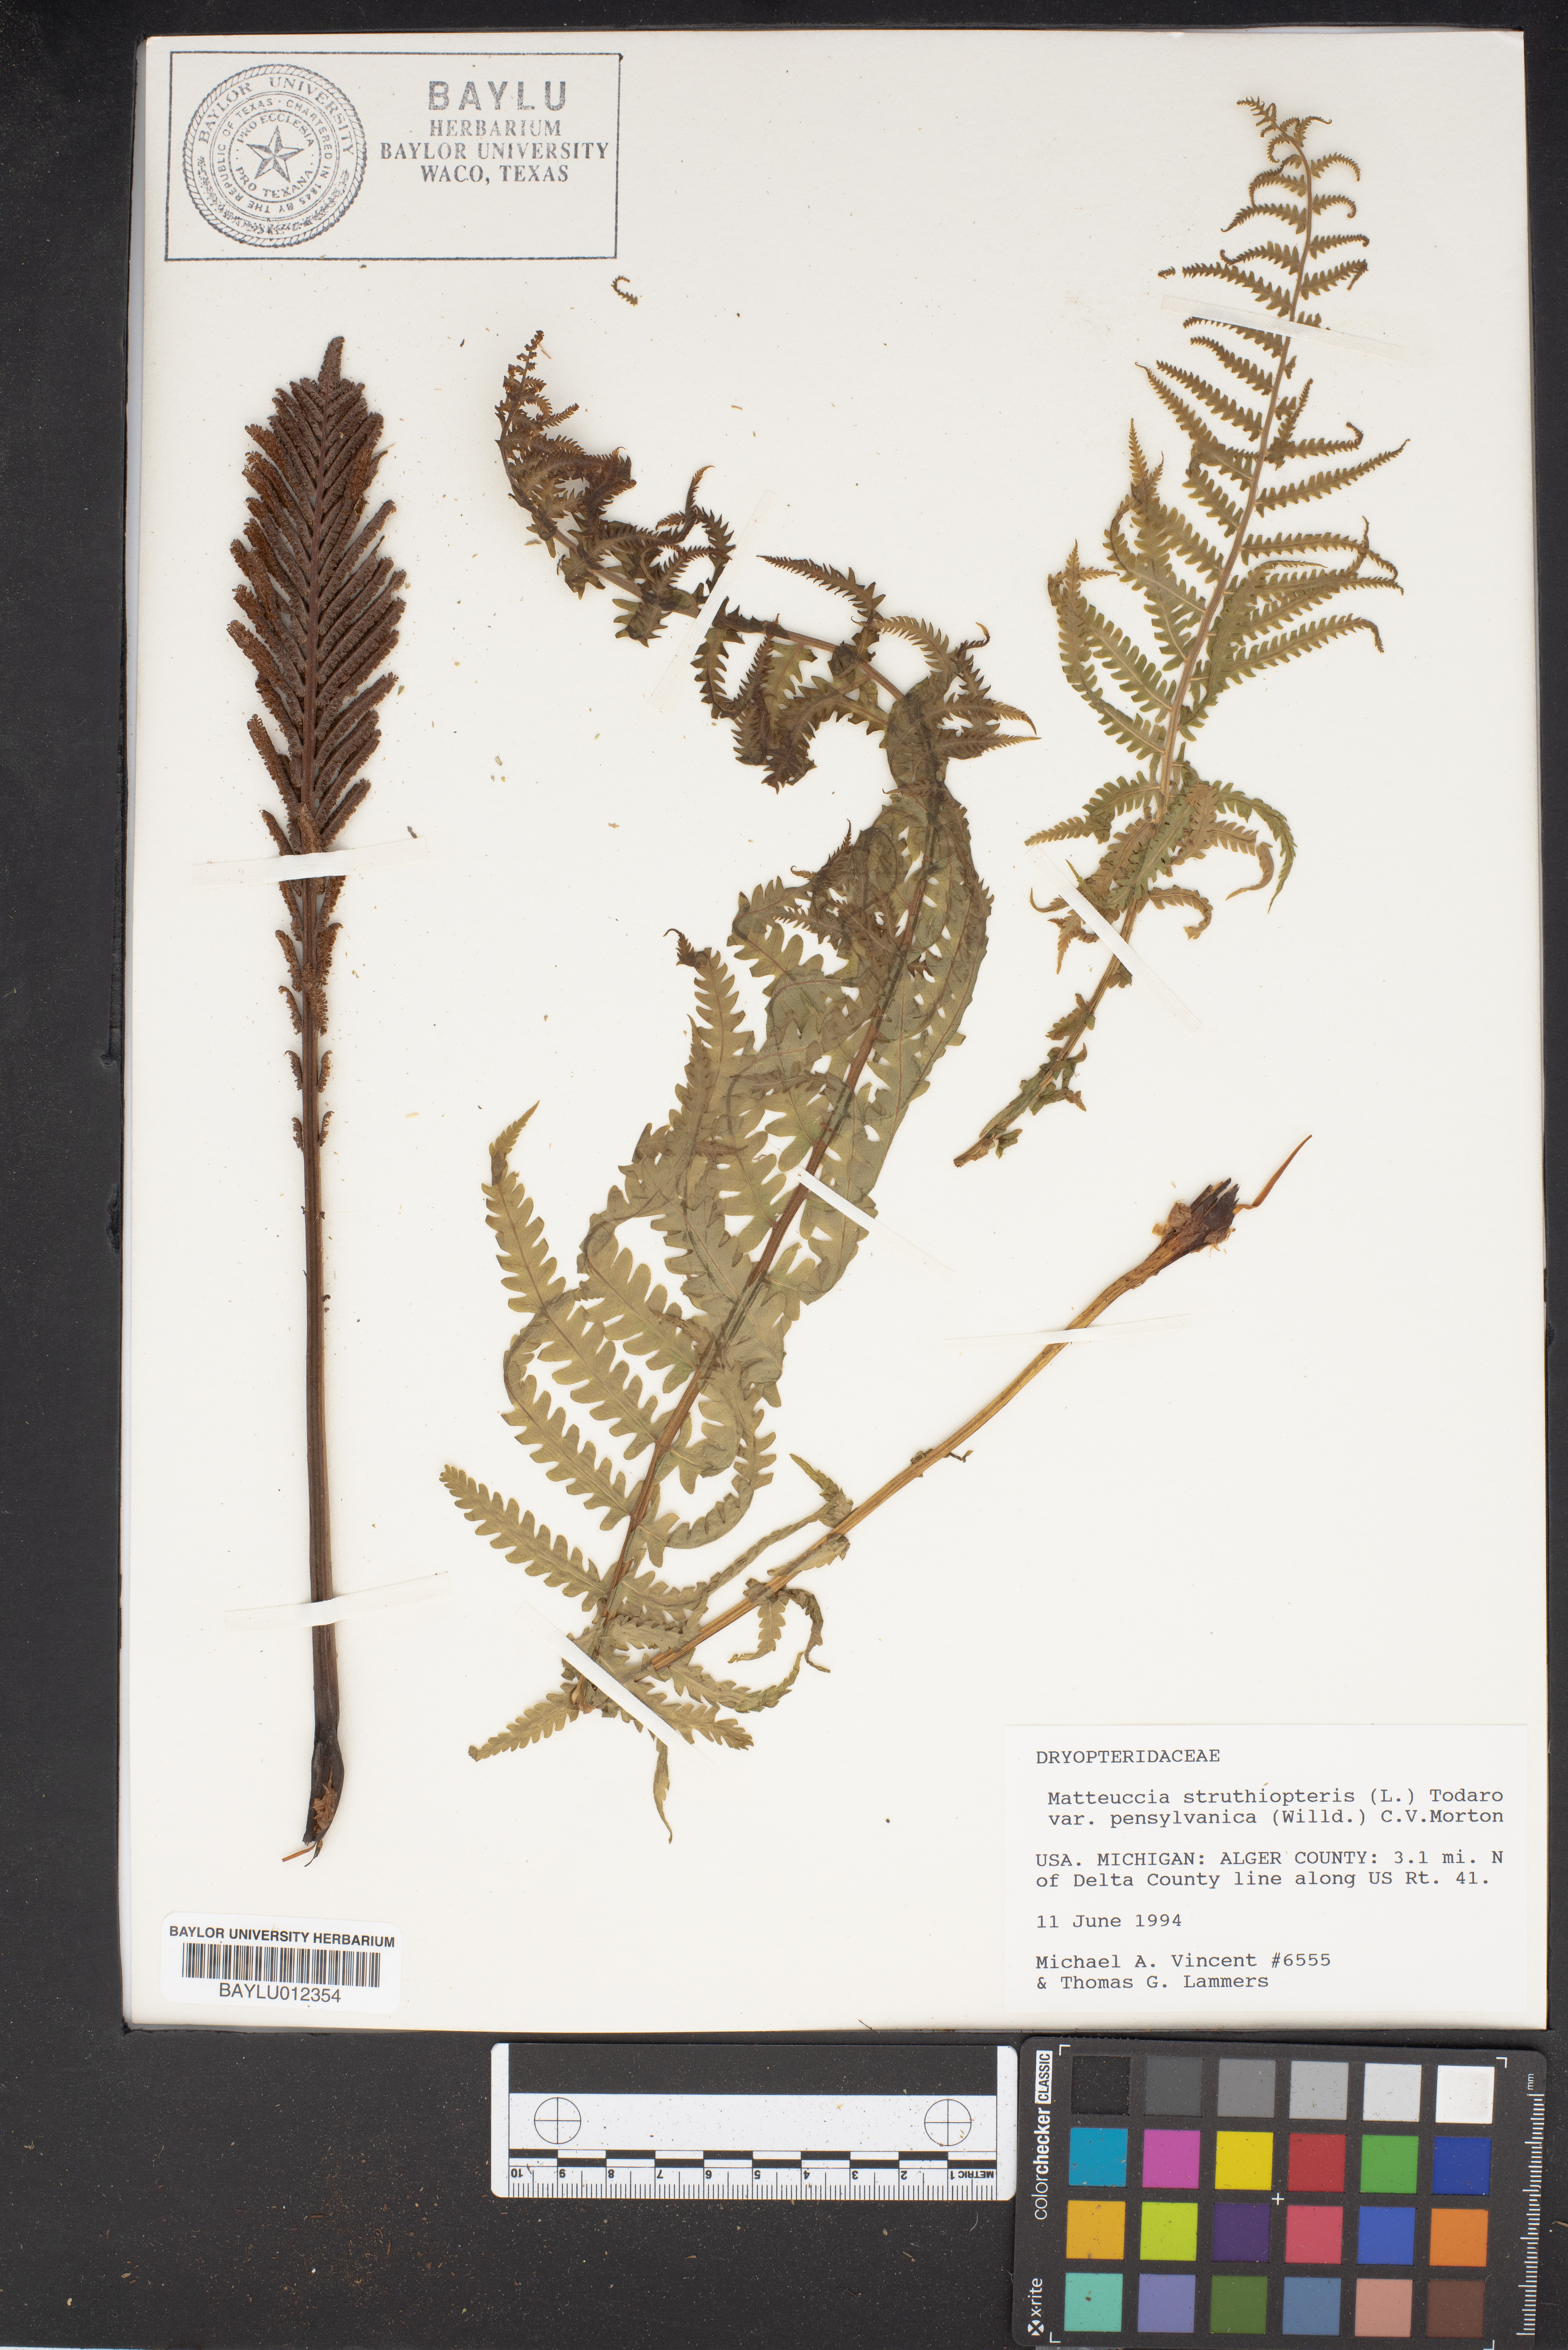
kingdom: Plantae
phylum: Tracheophyta
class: Polypodiopsida
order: Polypodiales
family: Onocleaceae
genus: Matteuccia
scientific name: Matteuccia struthiopteris
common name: Ostrich fern
